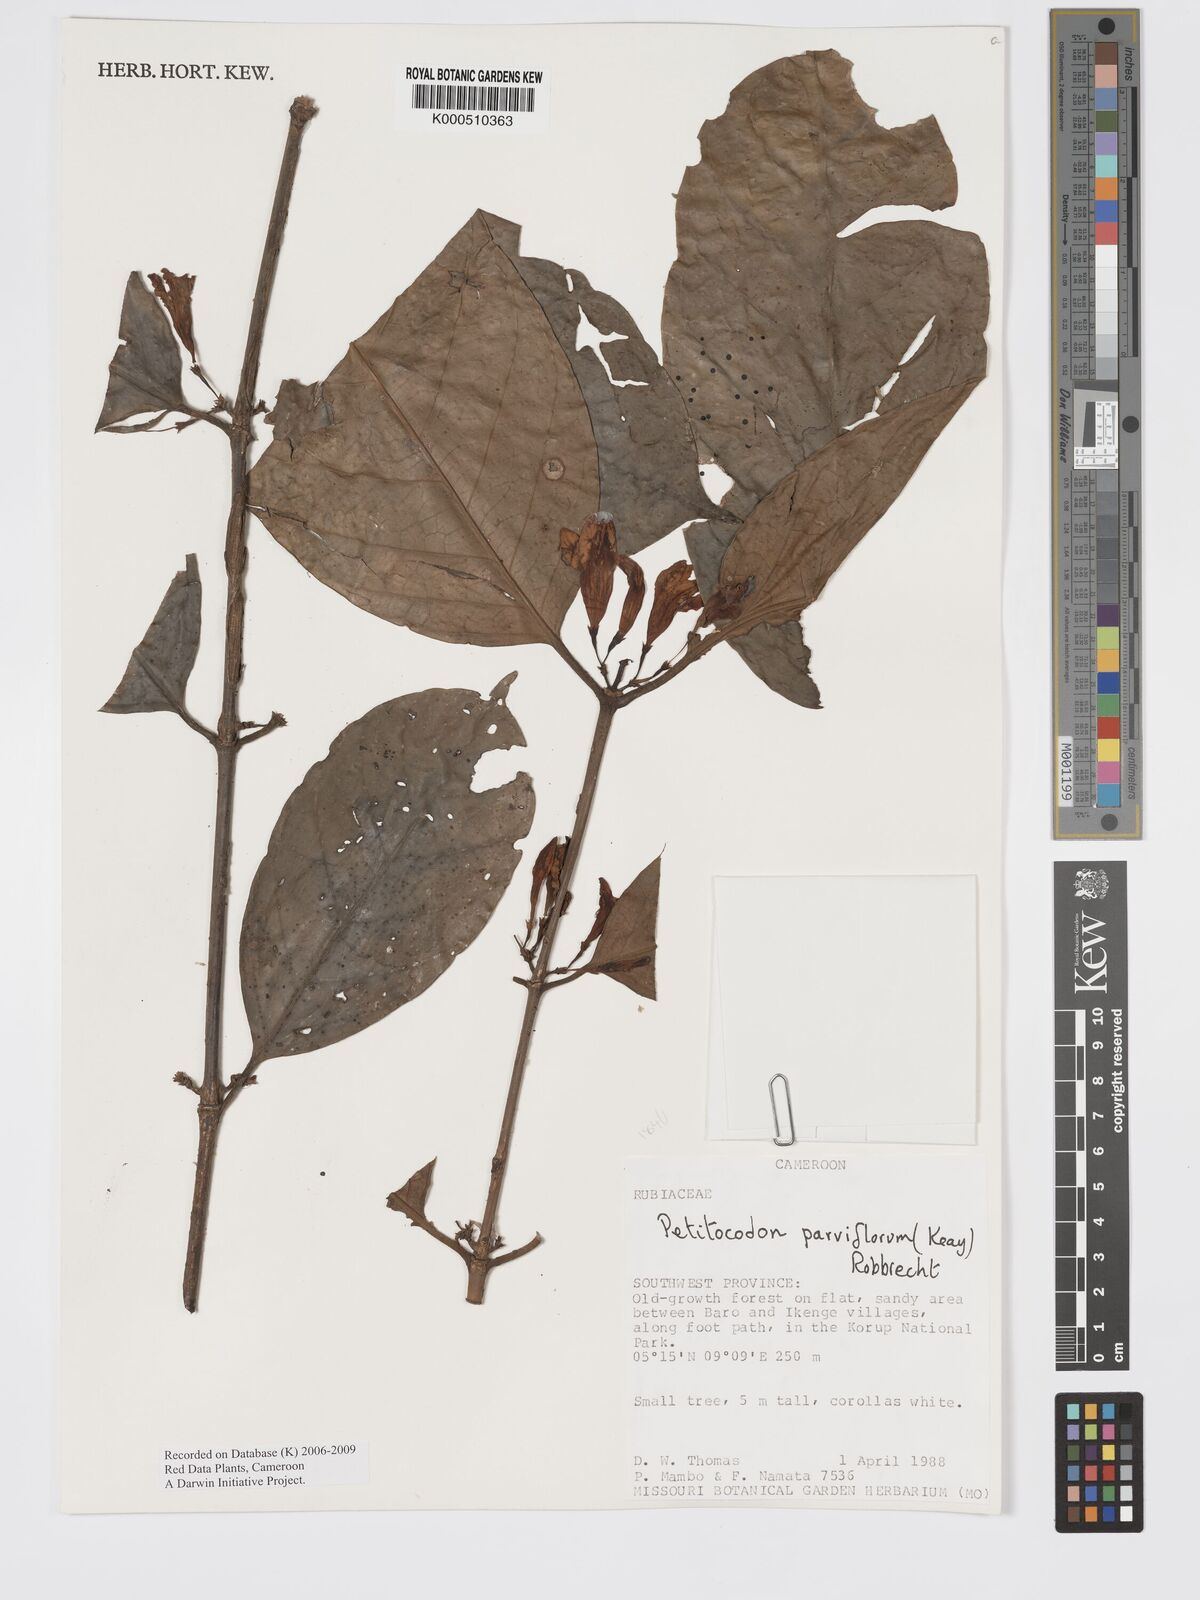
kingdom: Plantae
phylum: Tracheophyta
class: Magnoliopsida
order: Gentianales
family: Rubiaceae
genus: Petitiocodon
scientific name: Petitiocodon parviflorum
